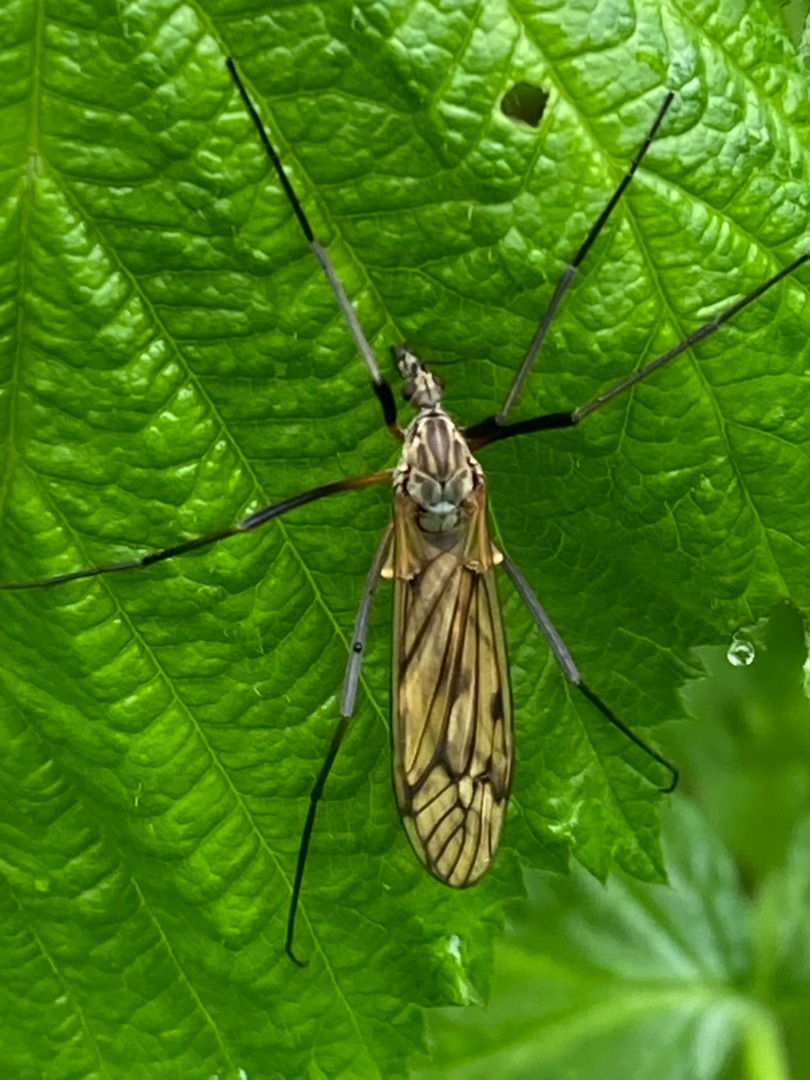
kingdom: Animalia
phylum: Arthropoda
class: Insecta
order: Diptera
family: Tipulidae
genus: Tipula
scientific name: Tipula varipennis
